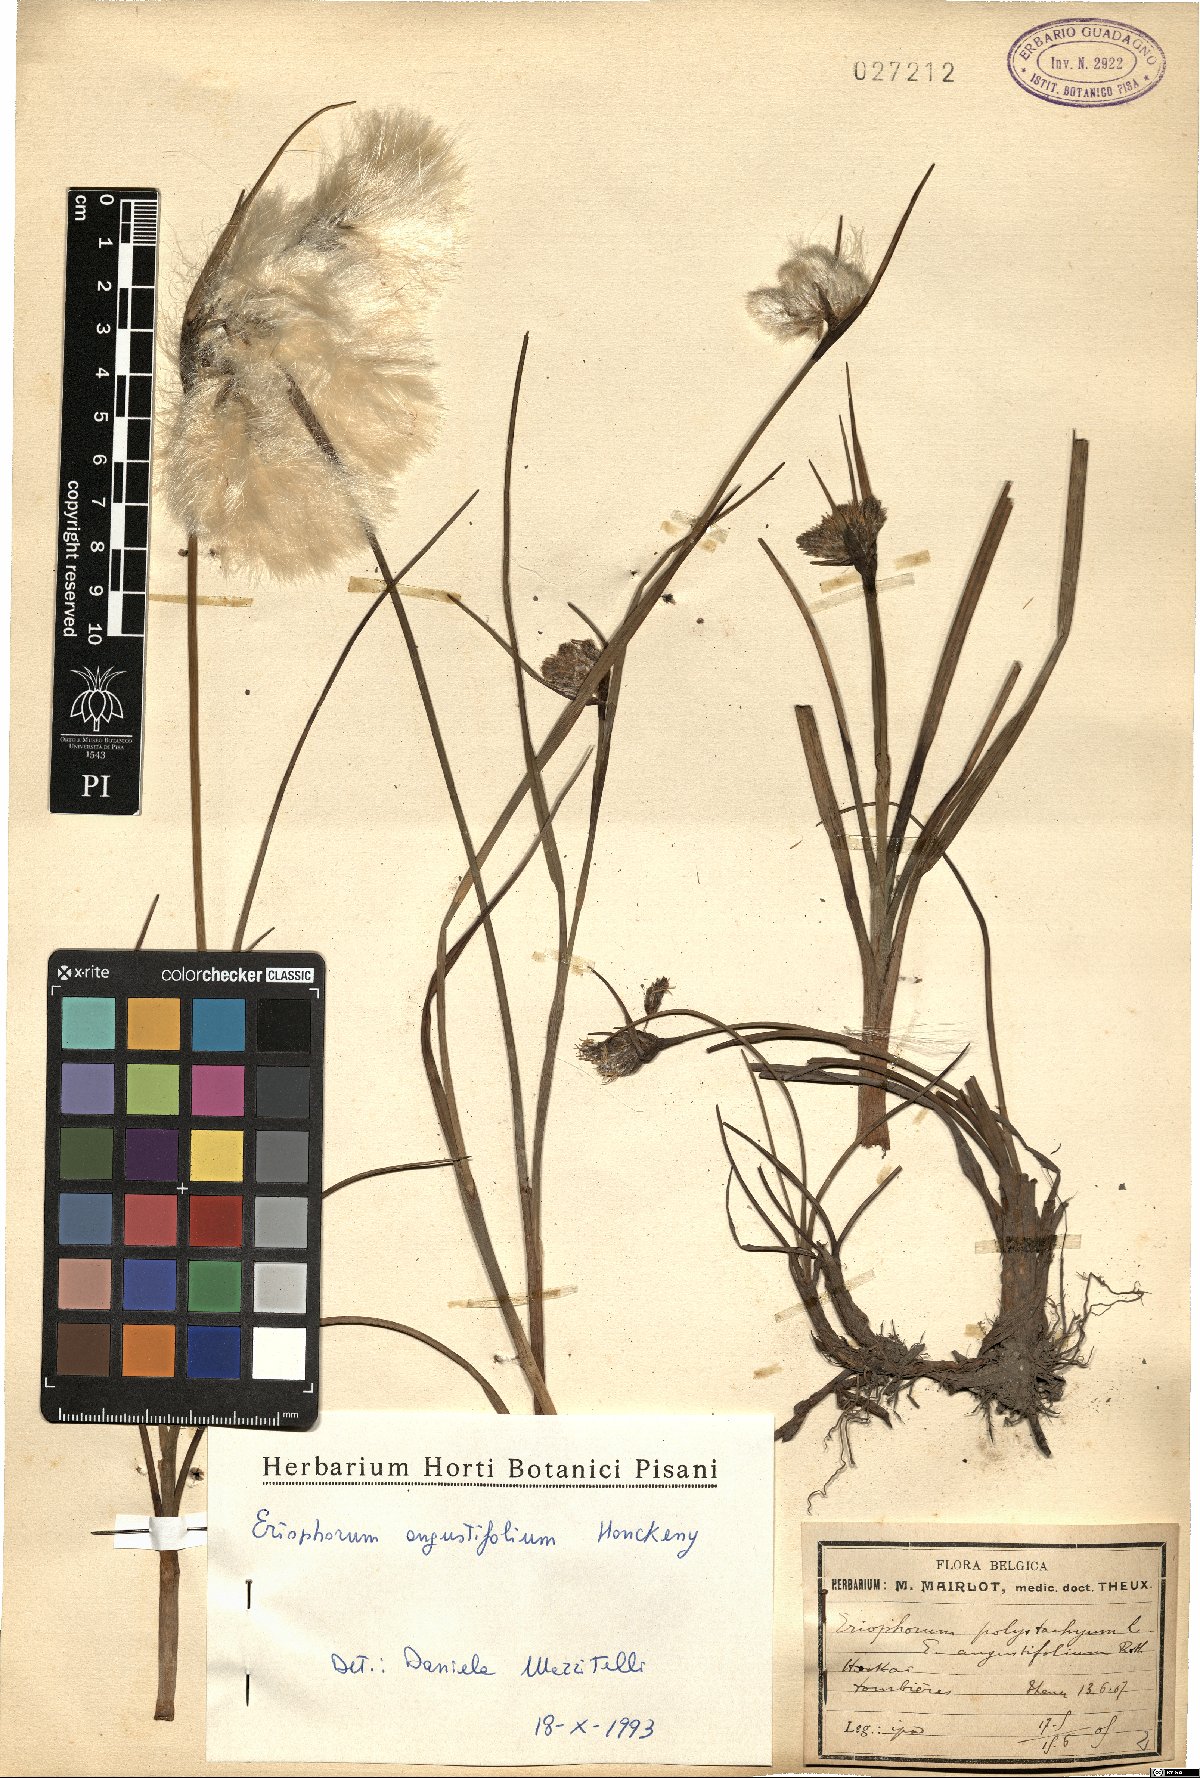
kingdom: Plantae
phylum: Tracheophyta
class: Liliopsida
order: Poales
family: Cyperaceae
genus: Eriophorum
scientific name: Eriophorum angustifolium
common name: Common cottongrass
